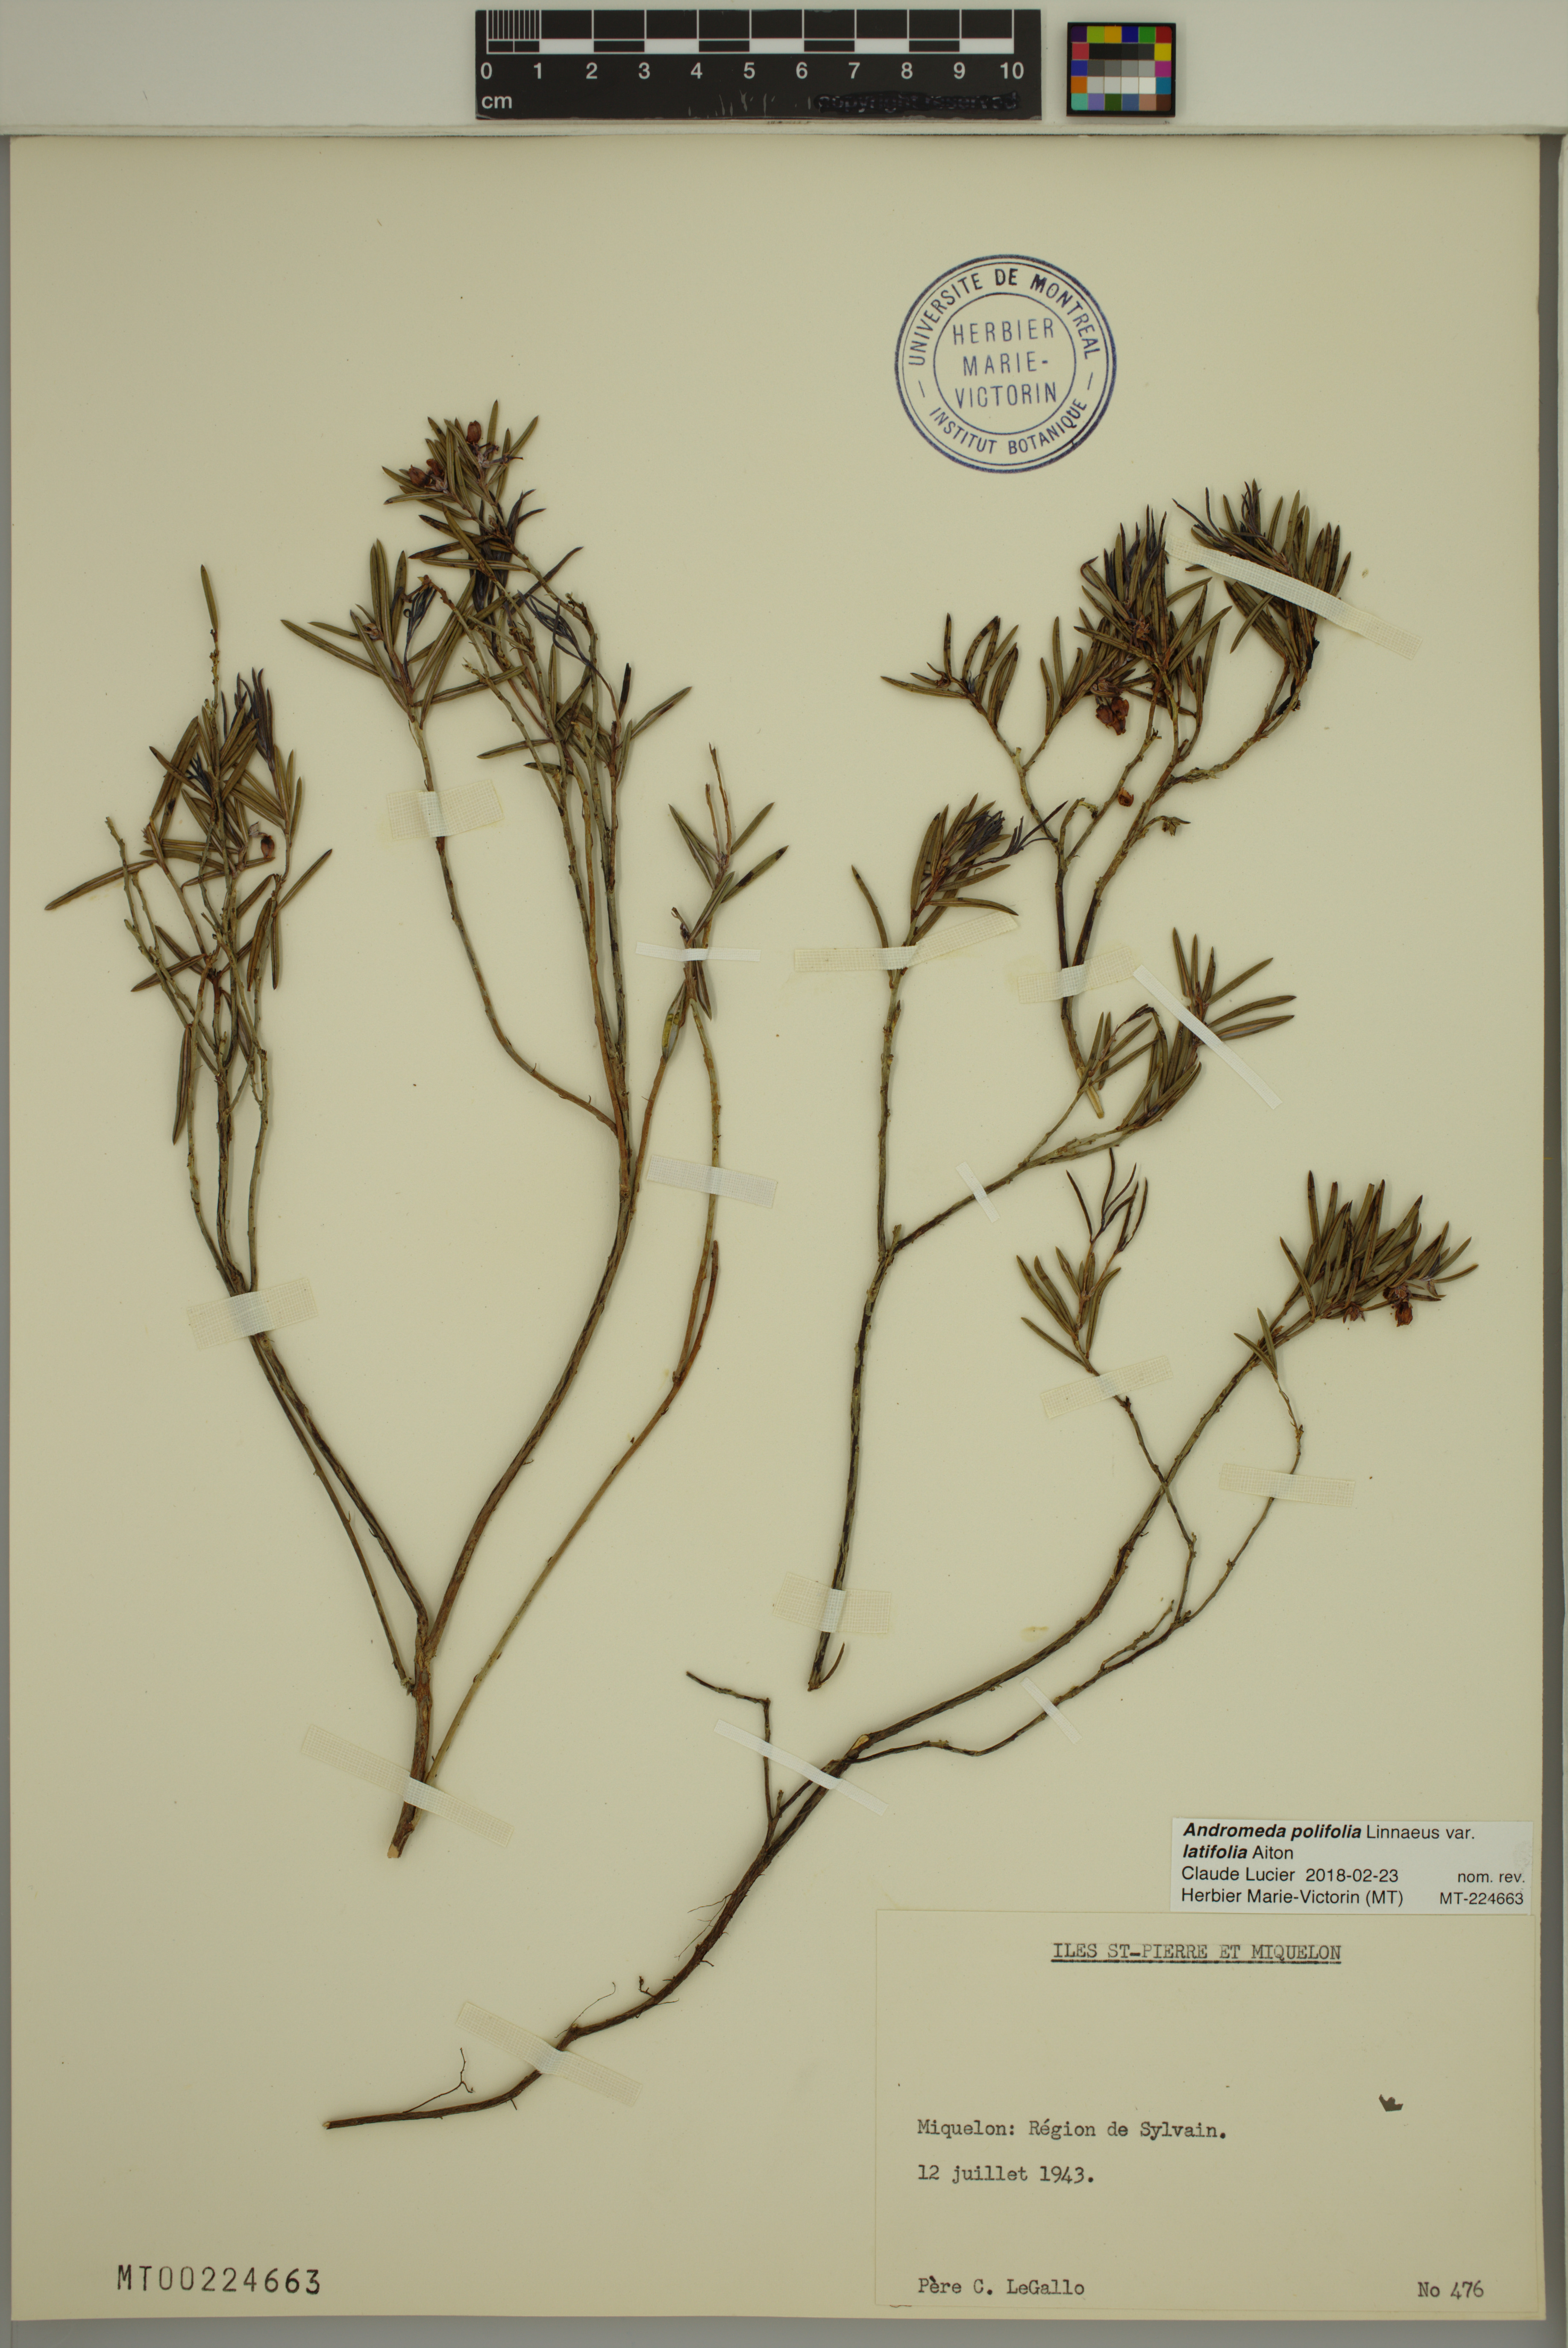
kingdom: Plantae
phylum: Tracheophyta
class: Magnoliopsida
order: Ericales
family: Ericaceae
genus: Andromeda
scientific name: Andromeda polifolia
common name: Bog-rosemary
